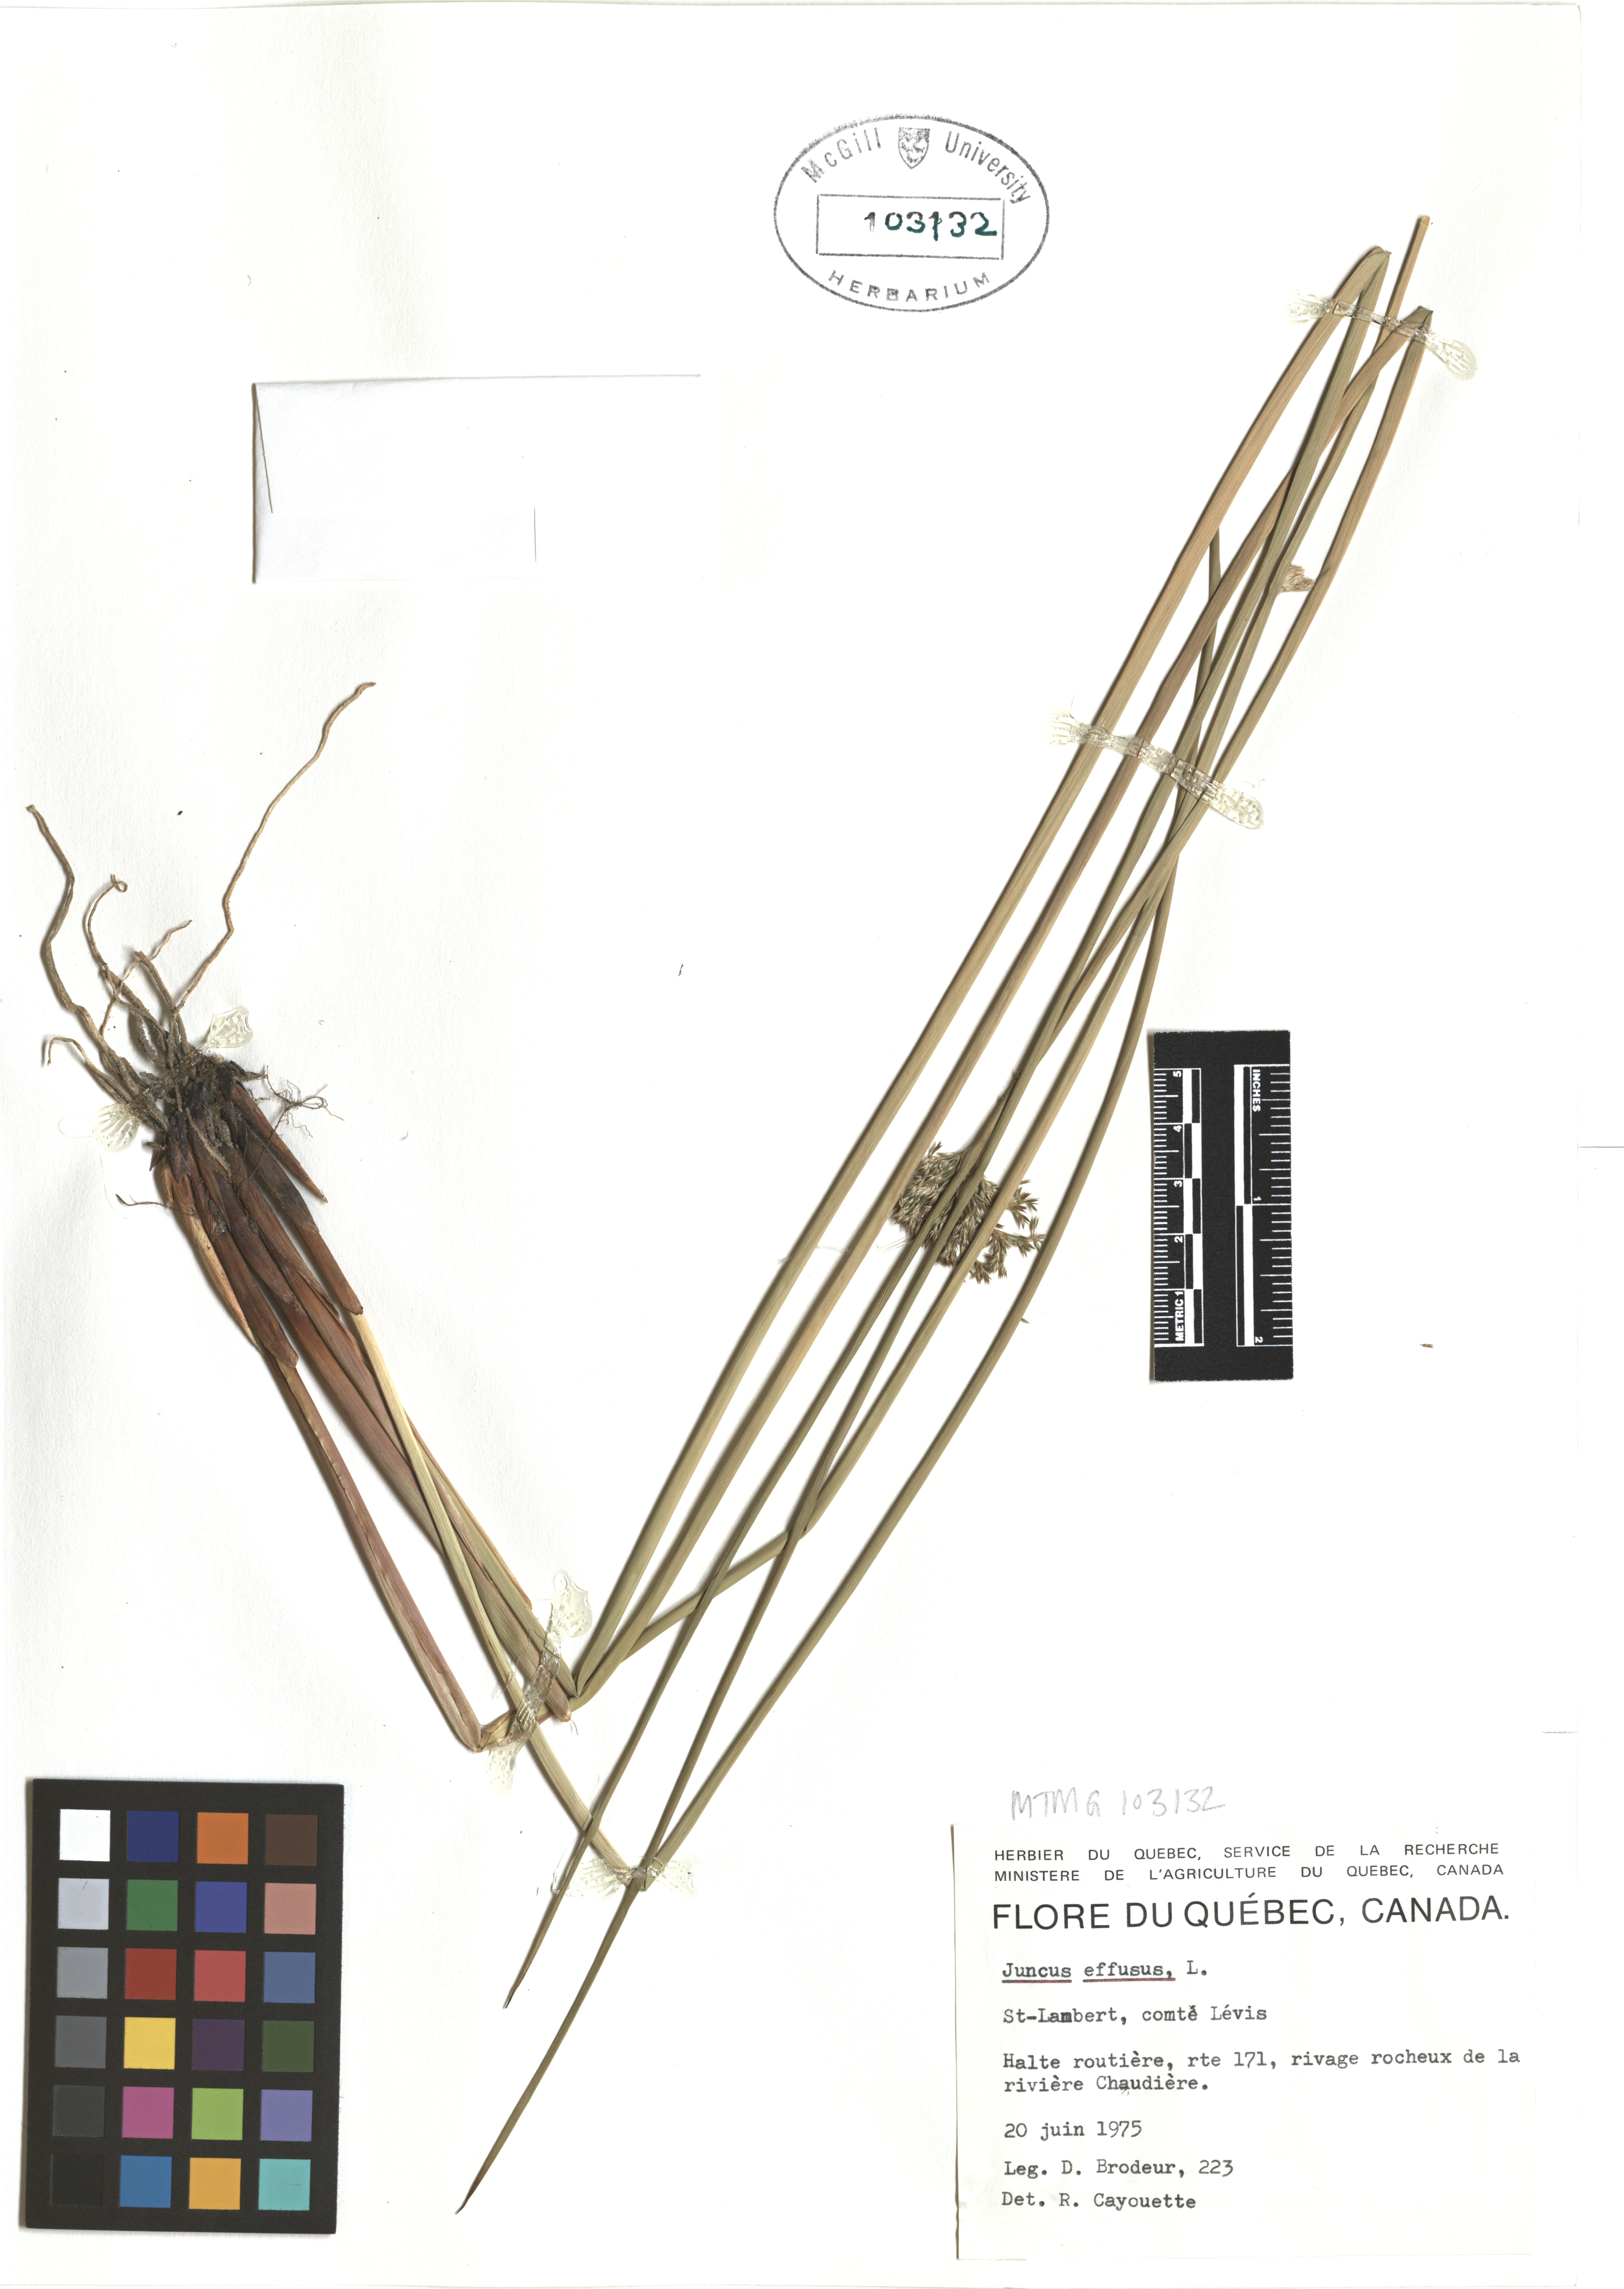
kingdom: Plantae
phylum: Tracheophyta
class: Liliopsida
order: Poales
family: Juncaceae
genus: Juncus
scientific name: Juncus effusus
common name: Soft rush
